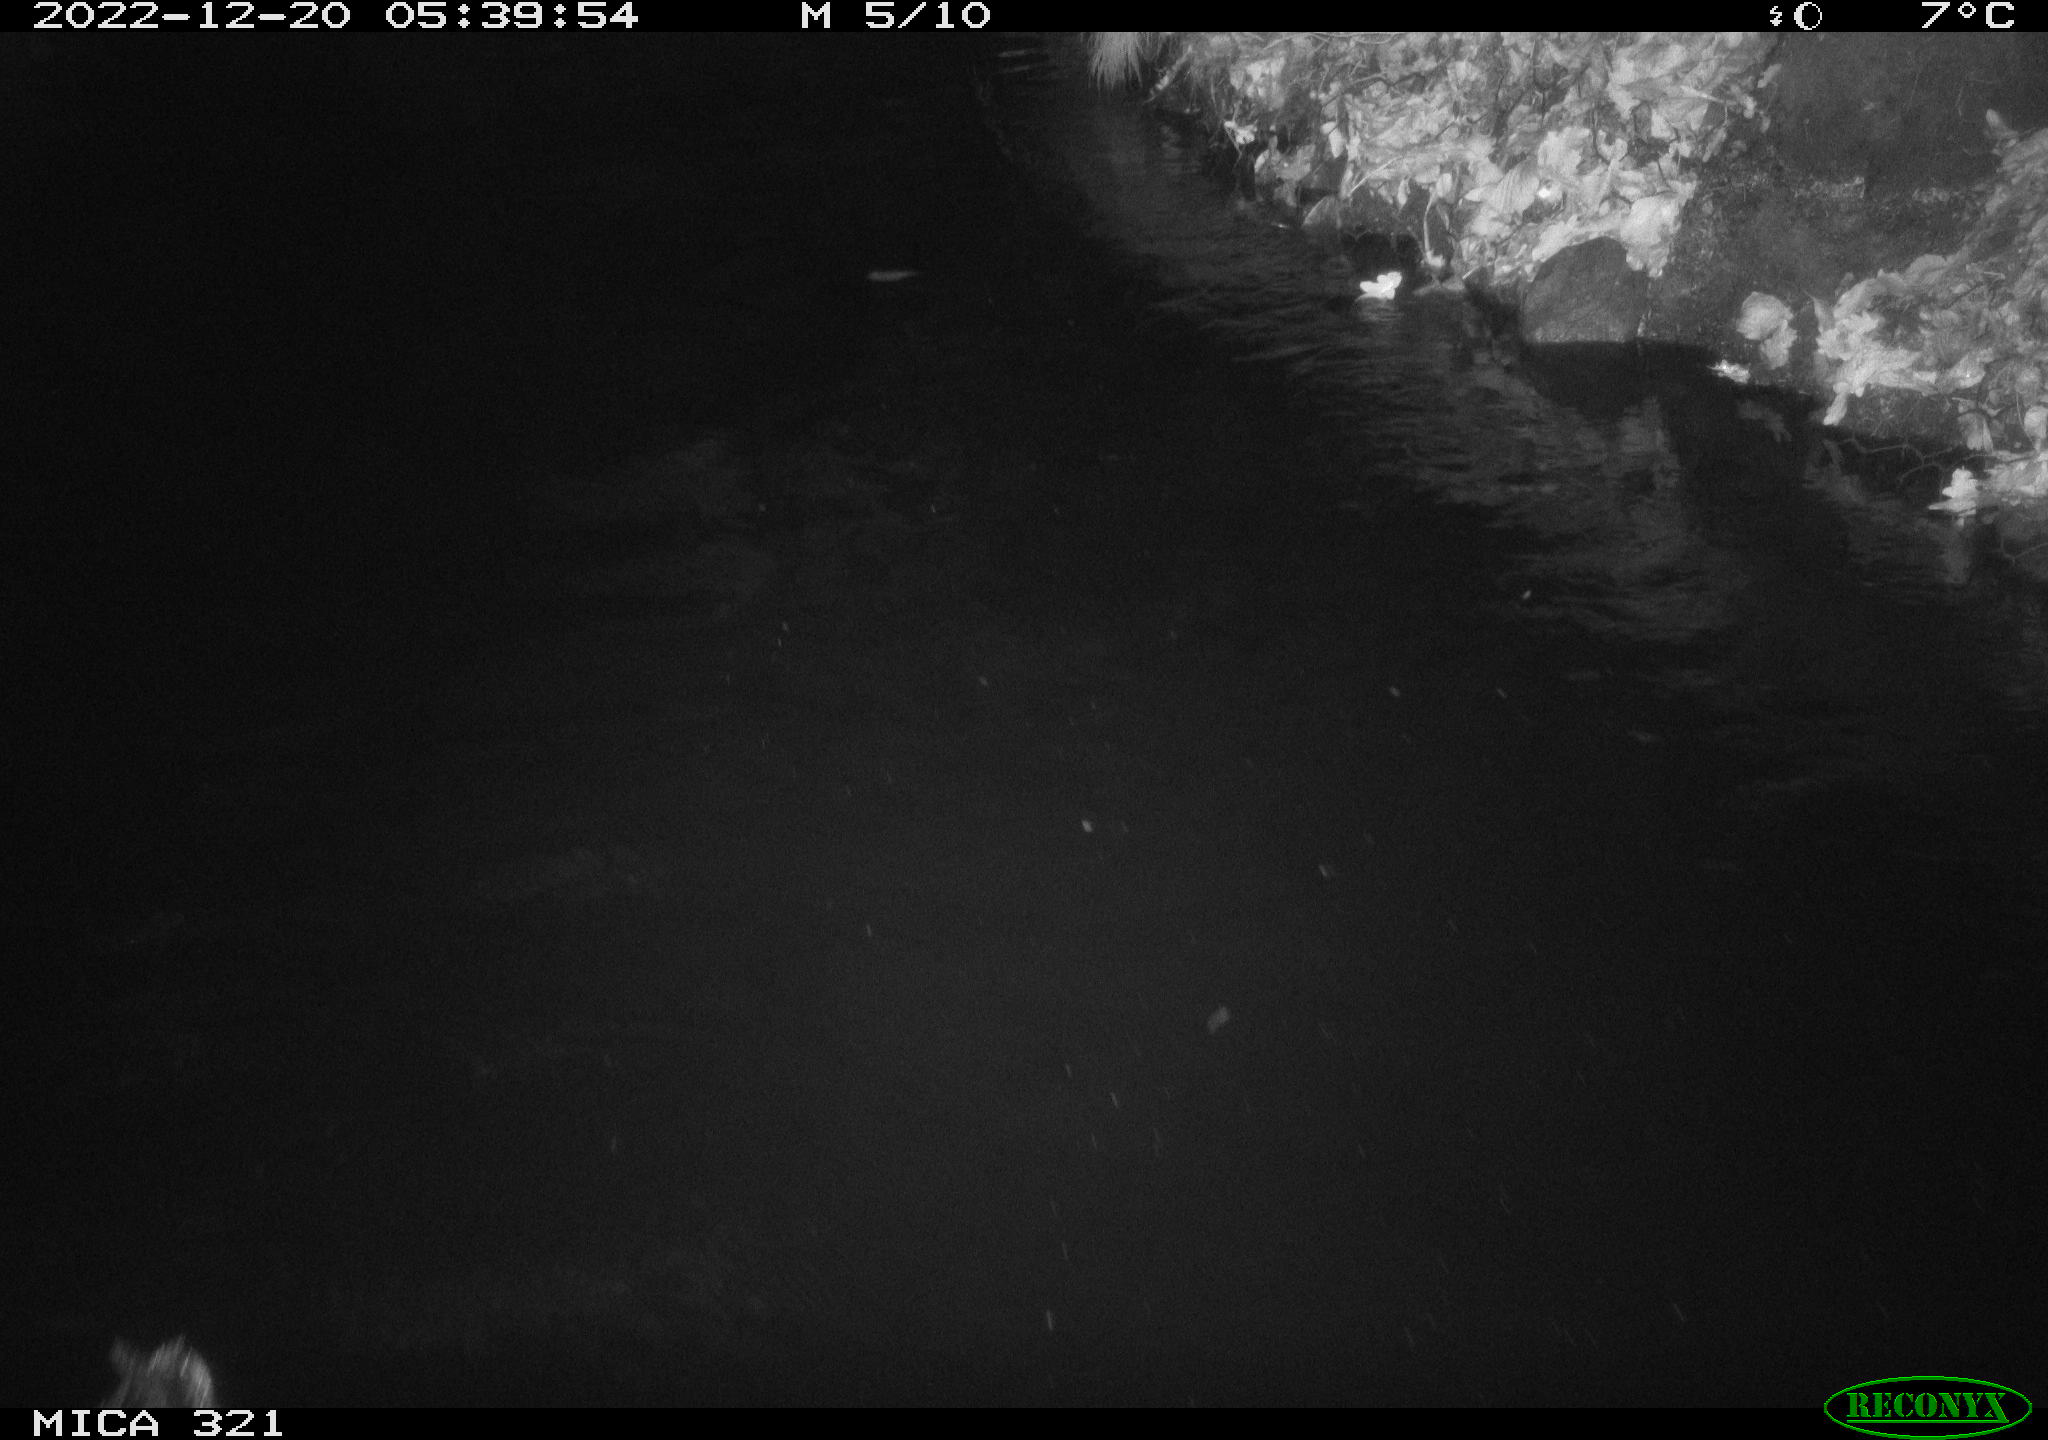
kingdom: Animalia
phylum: Chordata
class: Aves
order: Anseriformes
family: Anatidae
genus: Anas
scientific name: Anas
